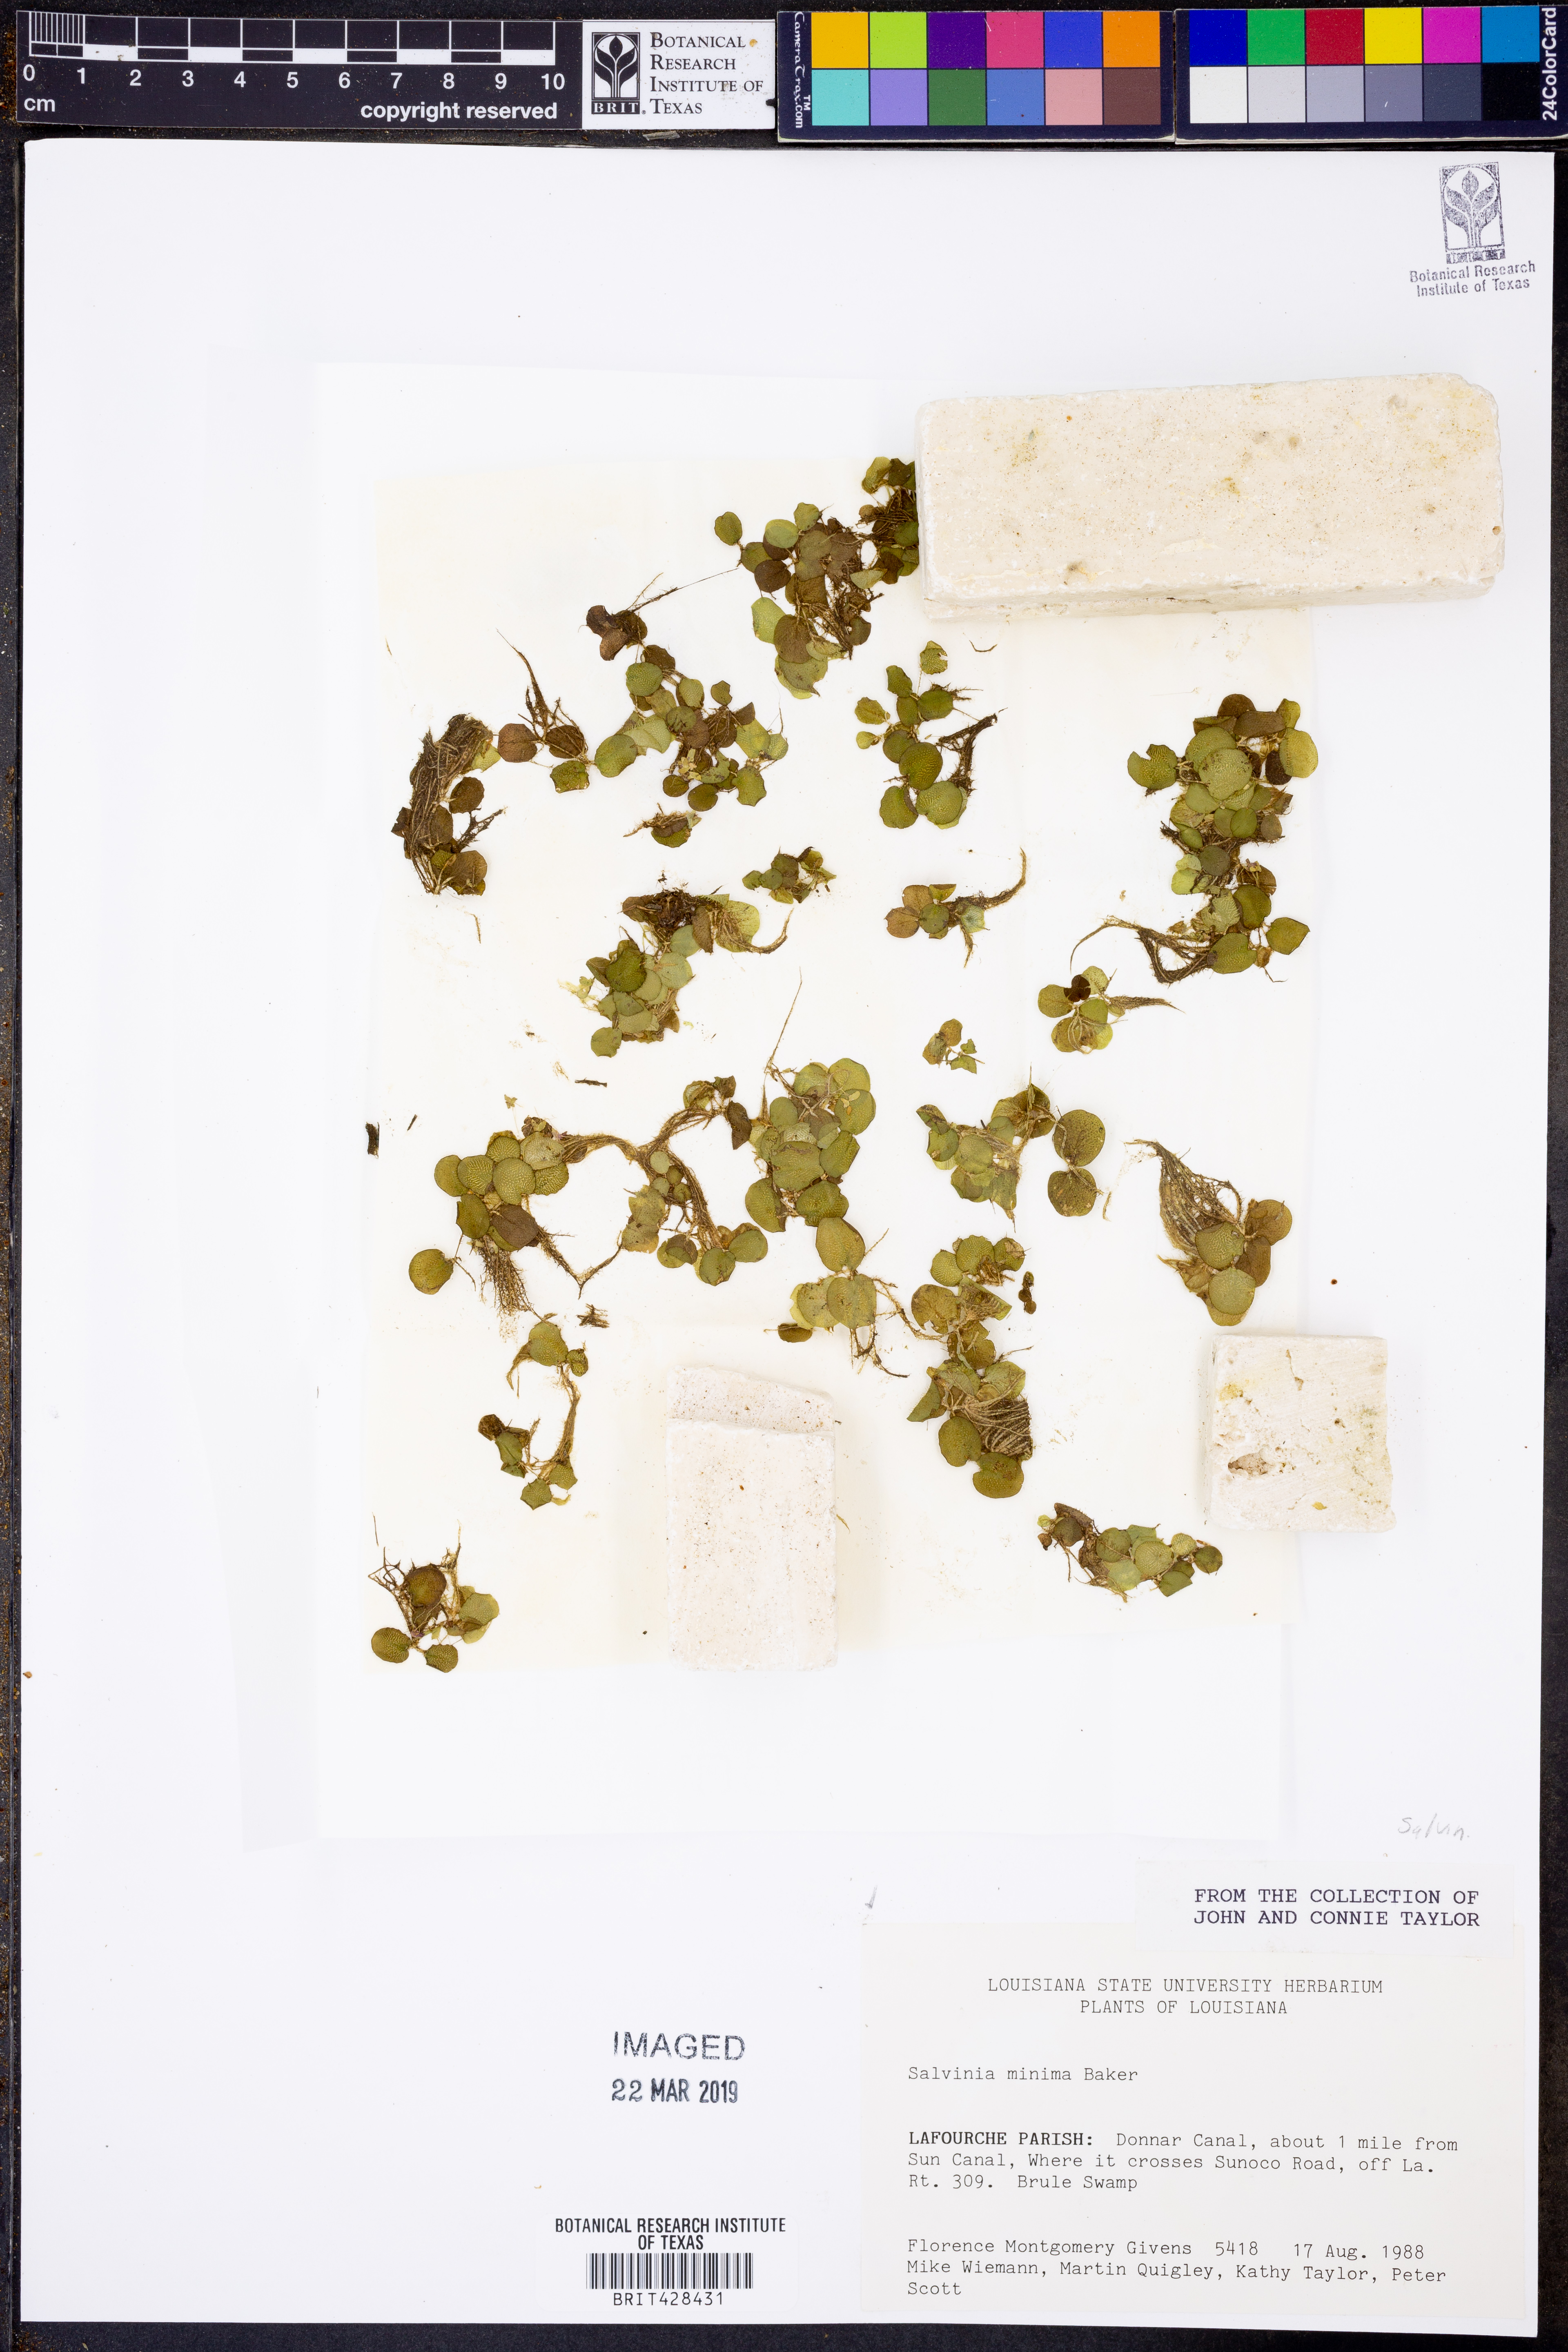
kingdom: Plantae
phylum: Tracheophyta
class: Polypodiopsida
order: Salviniales
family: Salviniaceae
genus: Salvinia
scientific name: Salvinia minima
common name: Water spangles
